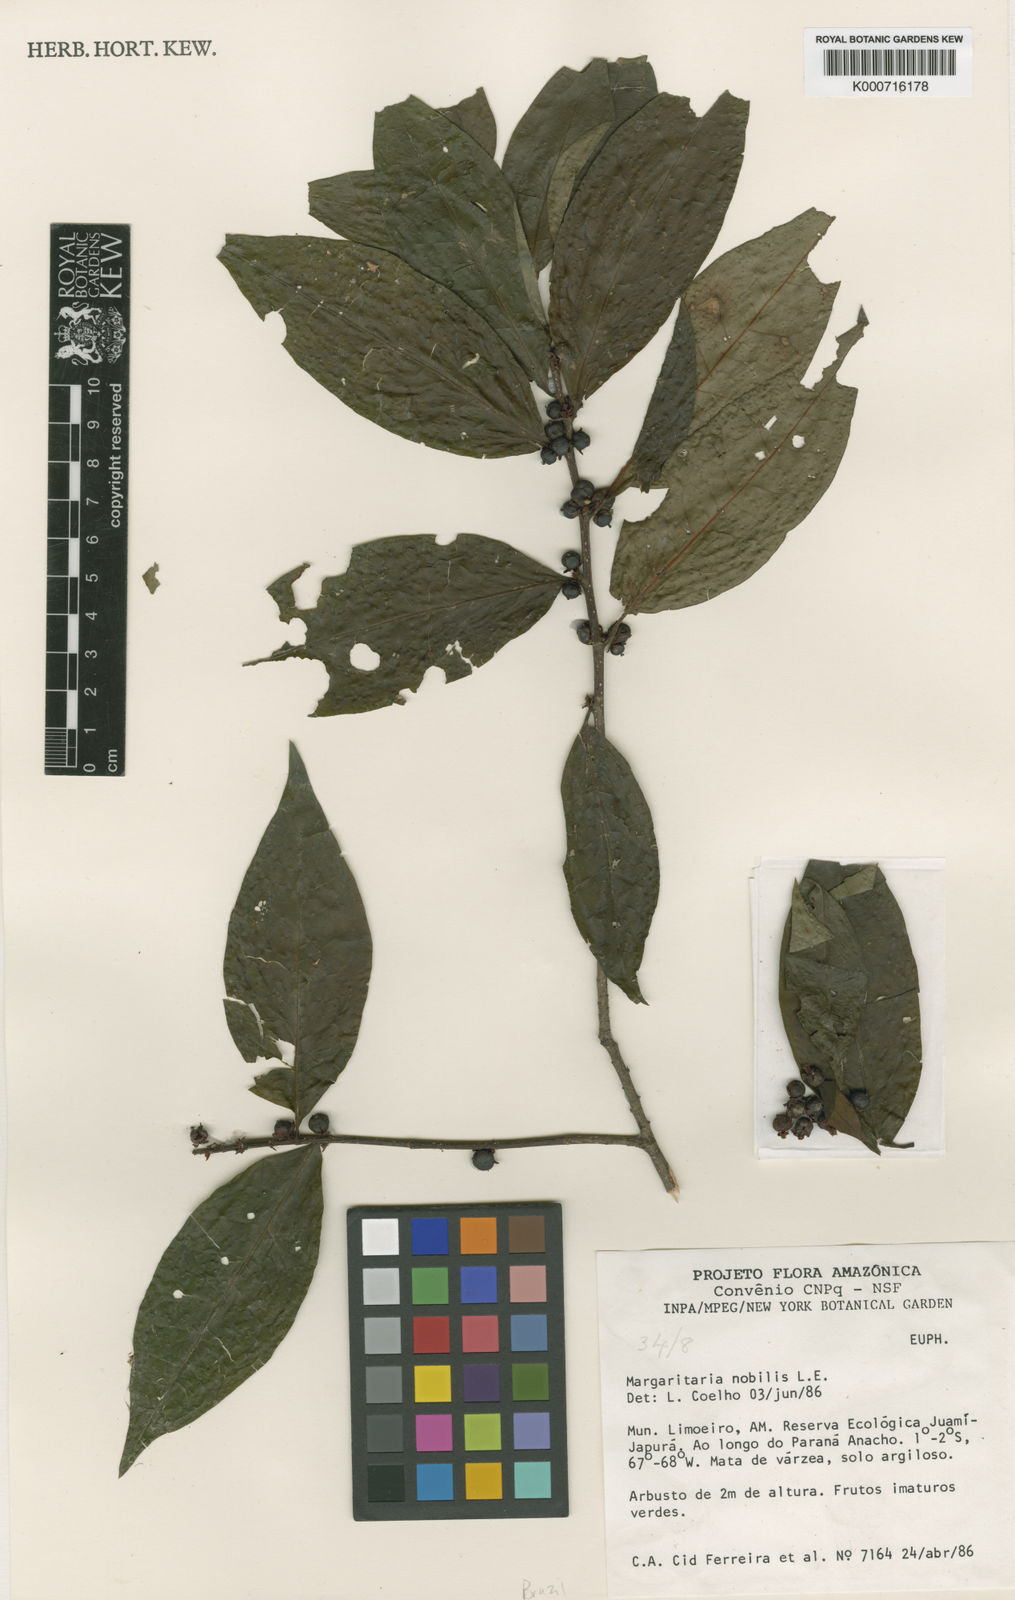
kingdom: Plantae
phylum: Tracheophyta
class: Magnoliopsida
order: Malpighiales
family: Phyllanthaceae
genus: Margaritaria
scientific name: Margaritaria nobilis
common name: Goose berry
